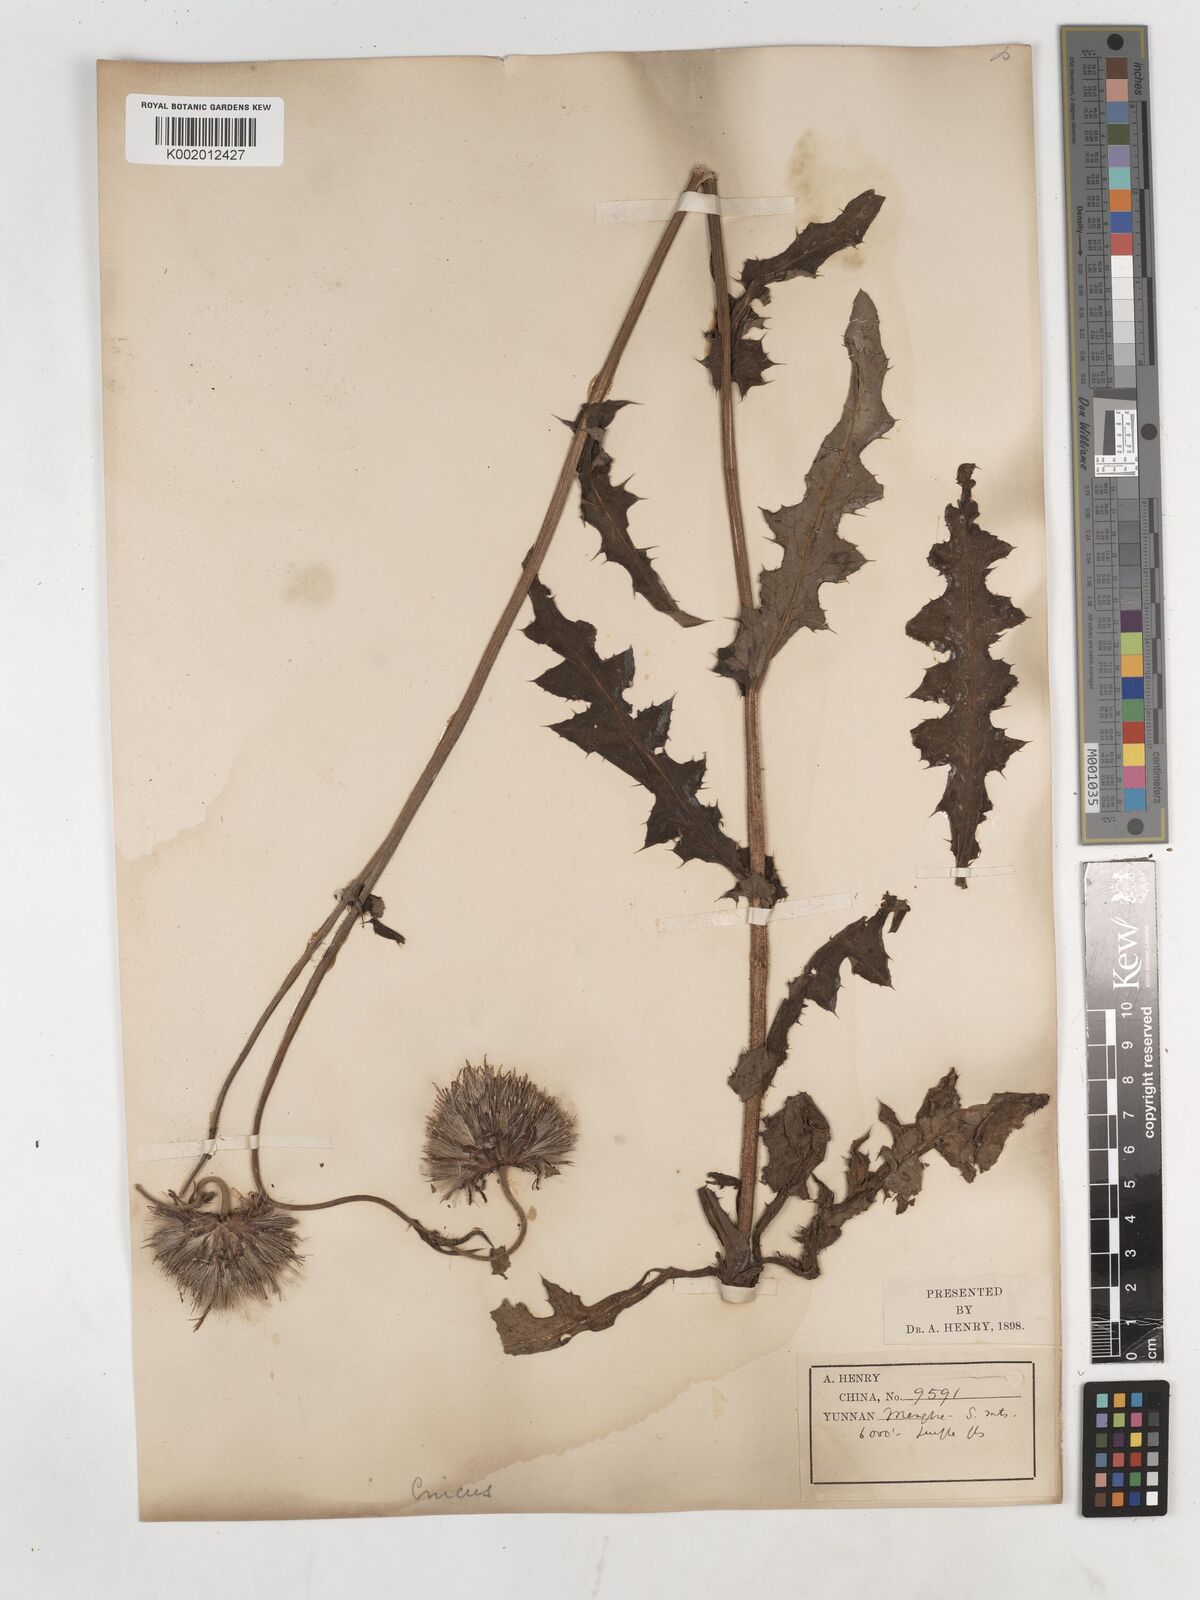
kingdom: Plantae
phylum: Tracheophyta
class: Magnoliopsida
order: Asterales
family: Asteraceae
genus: Cirsium
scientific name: Cirsium
